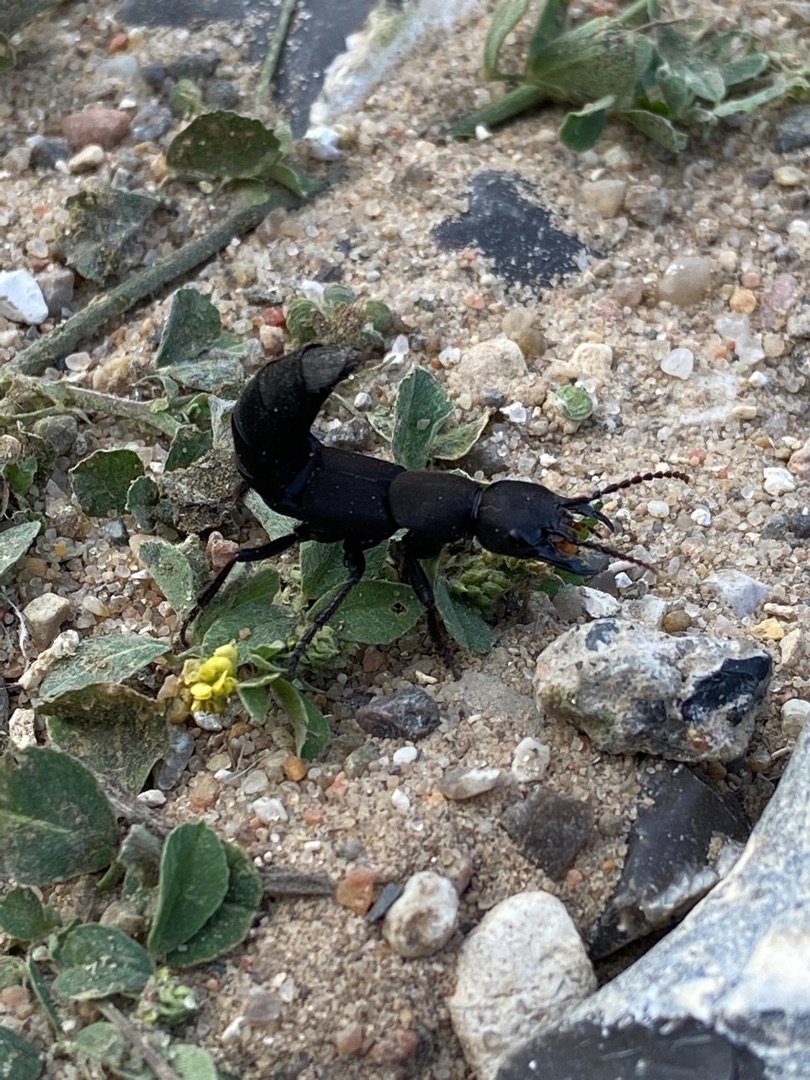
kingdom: Animalia
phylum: Arthropoda
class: Insecta
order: Coleoptera
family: Staphylinidae
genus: Ocypus
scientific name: Ocypus olens
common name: Stor rovbille
